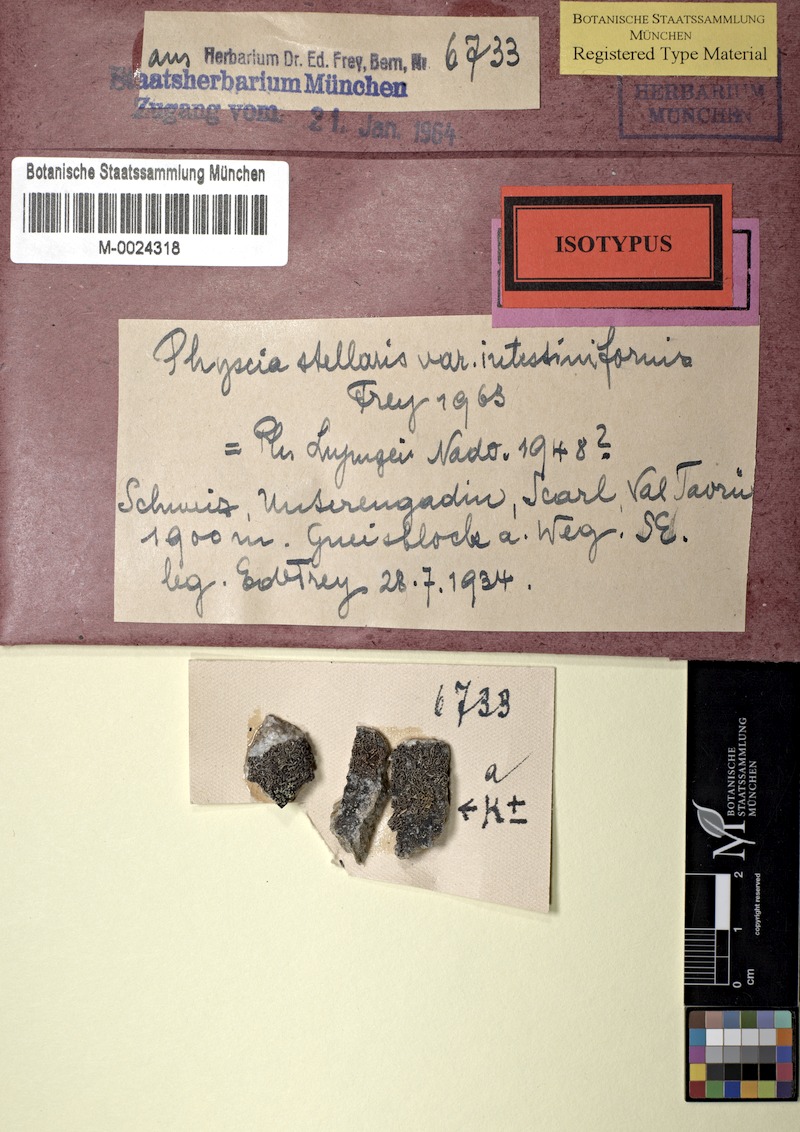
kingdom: Fungi
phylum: Ascomycota
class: Lecanoromycetes
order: Caliciales
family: Physciaceae
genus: Physcia
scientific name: Physcia stellaris
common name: Star rosette lichen
